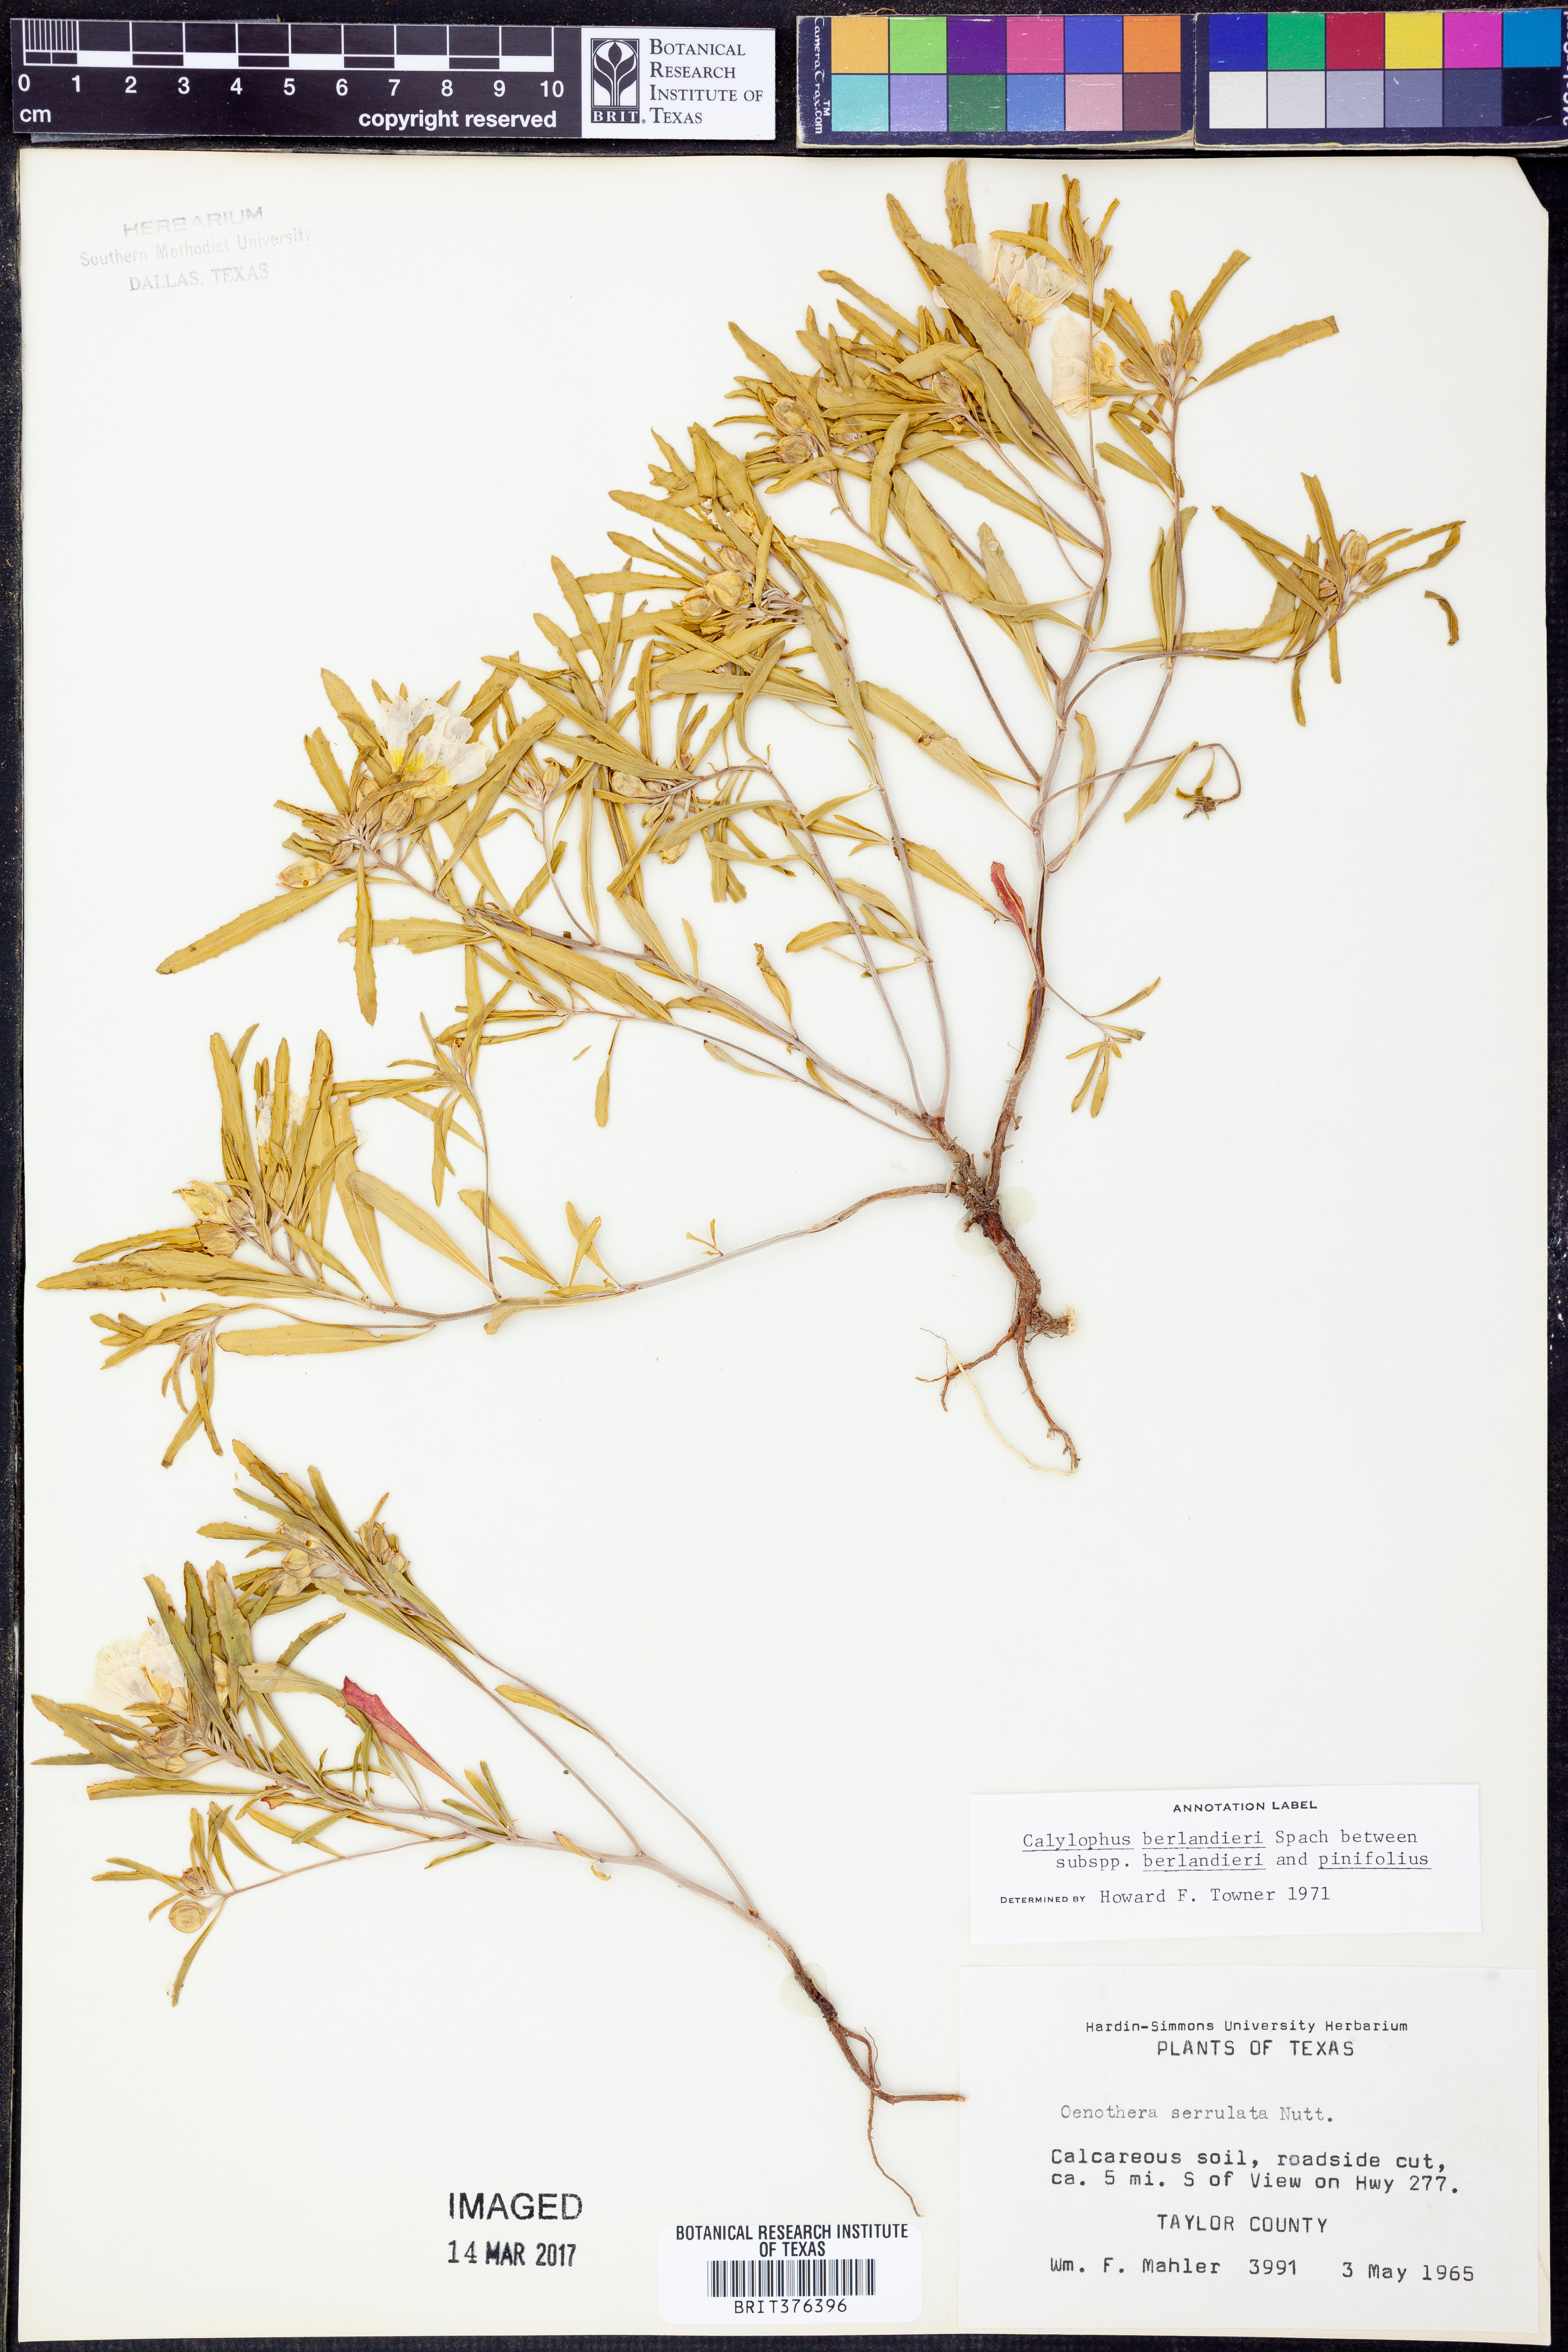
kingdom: Plantae
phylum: Tracheophyta
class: Magnoliopsida
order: Myrtales
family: Onagraceae
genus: Oenothera
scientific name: Oenothera capillifolia
